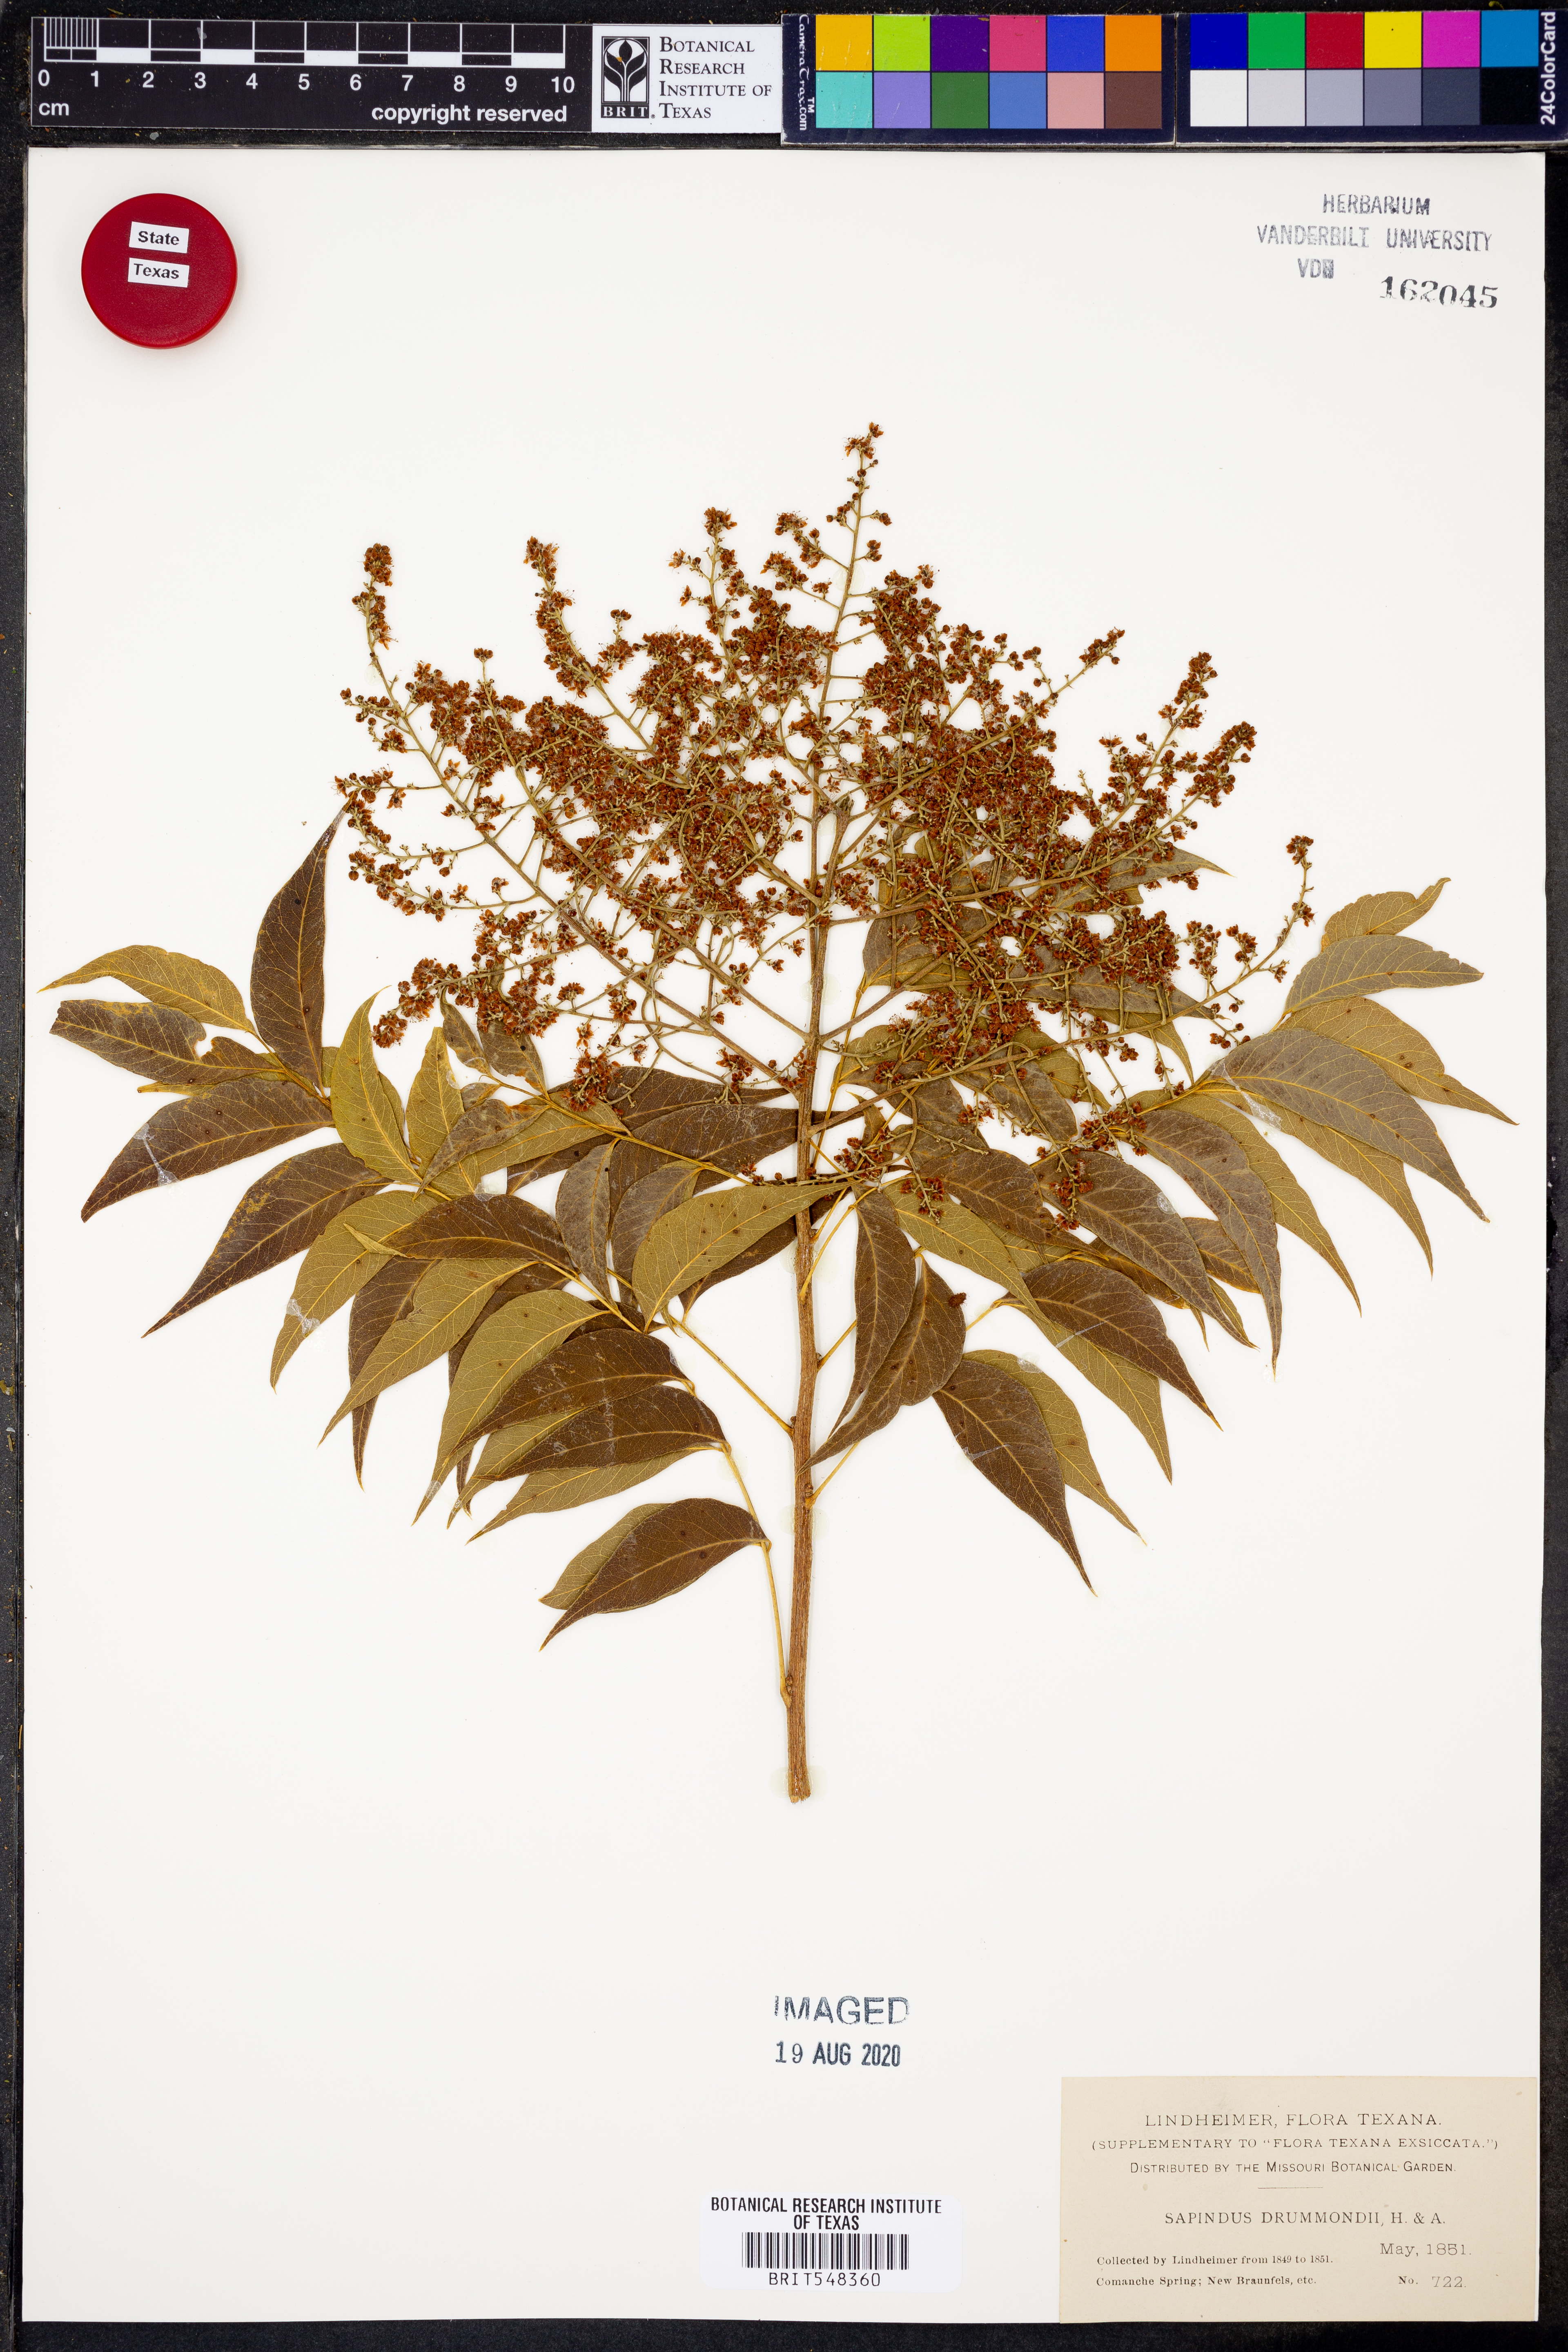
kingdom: Plantae
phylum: Tracheophyta
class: Magnoliopsida
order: Sapindales
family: Sapindaceae
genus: Sapindus
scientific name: Sapindus drummondii
